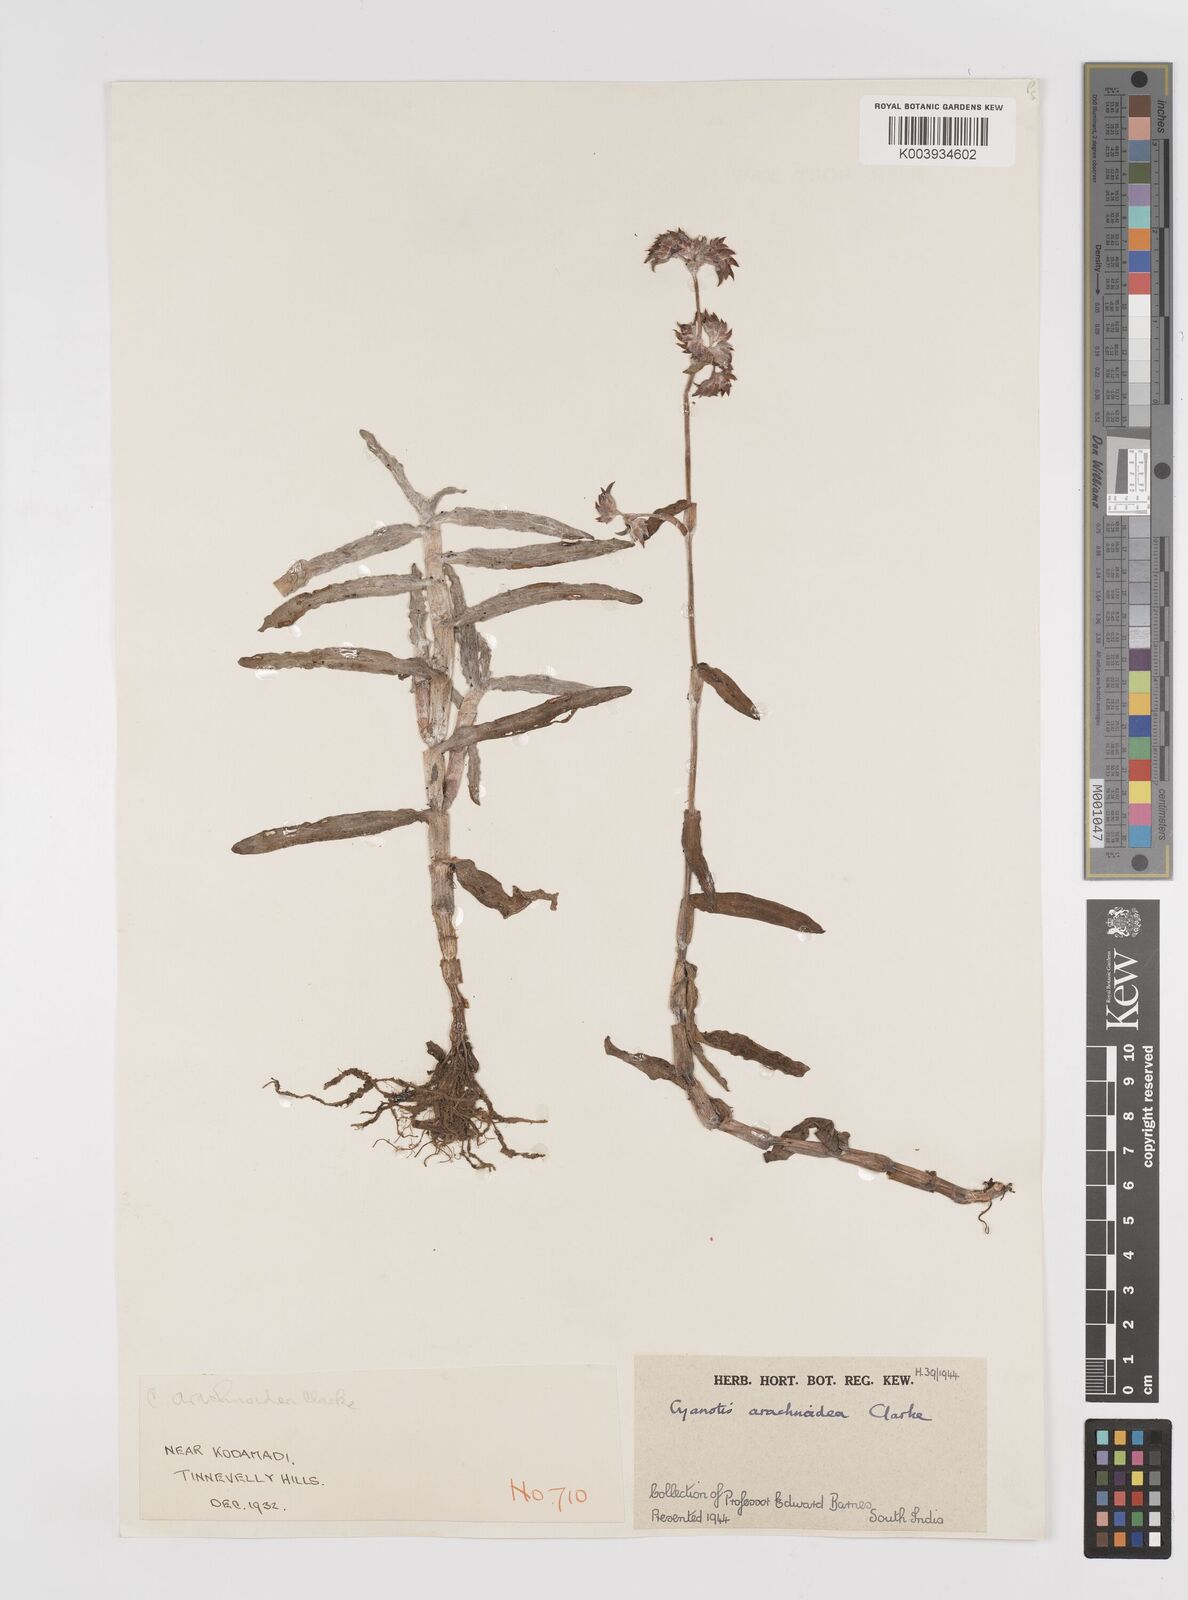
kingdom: Plantae
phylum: Tracheophyta
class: Liliopsida
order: Commelinales
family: Commelinaceae
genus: Cyanotis
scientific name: Cyanotis arachnoidea
